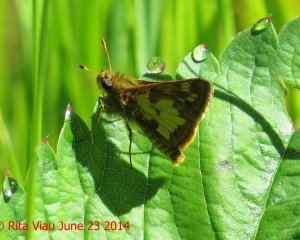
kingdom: Animalia
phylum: Arthropoda
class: Insecta
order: Lepidoptera
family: Hesperiidae
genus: Polites
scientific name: Polites coras
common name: Peck's Skipper
